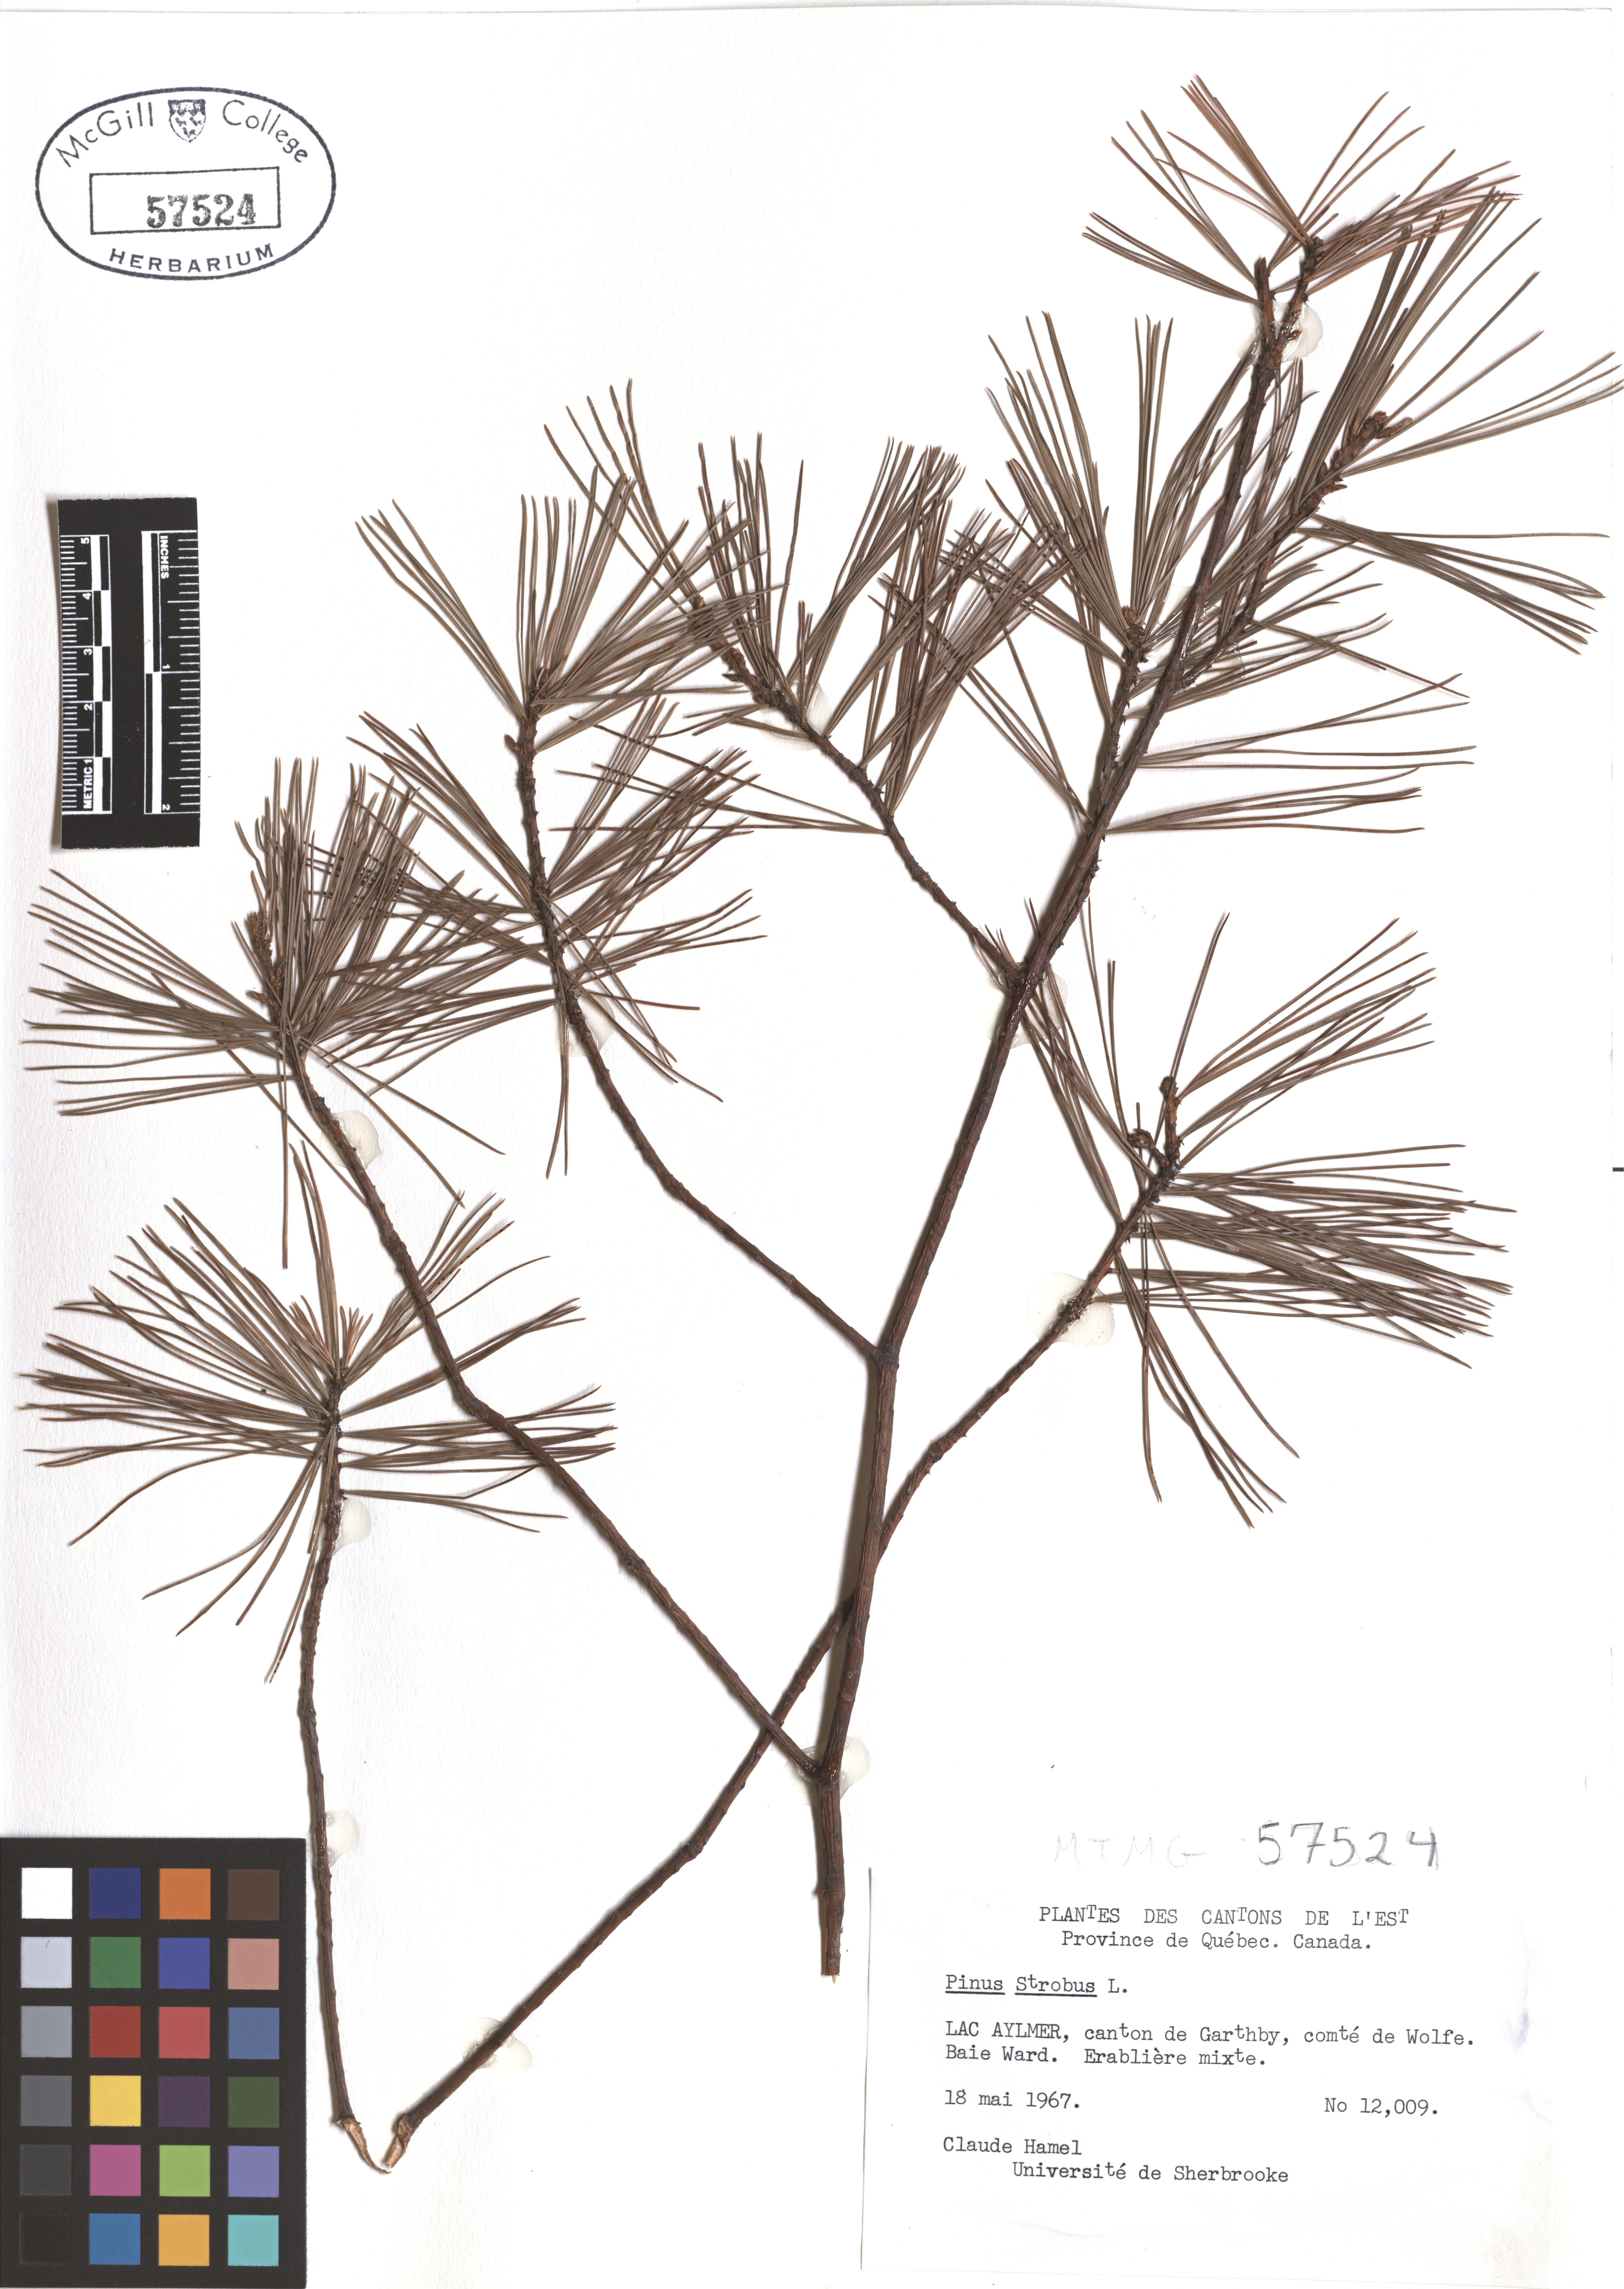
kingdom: Plantae
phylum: Tracheophyta
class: Pinopsida
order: Pinales
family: Pinaceae
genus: Pinus
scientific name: Pinus strobus
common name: Weymouth pine
